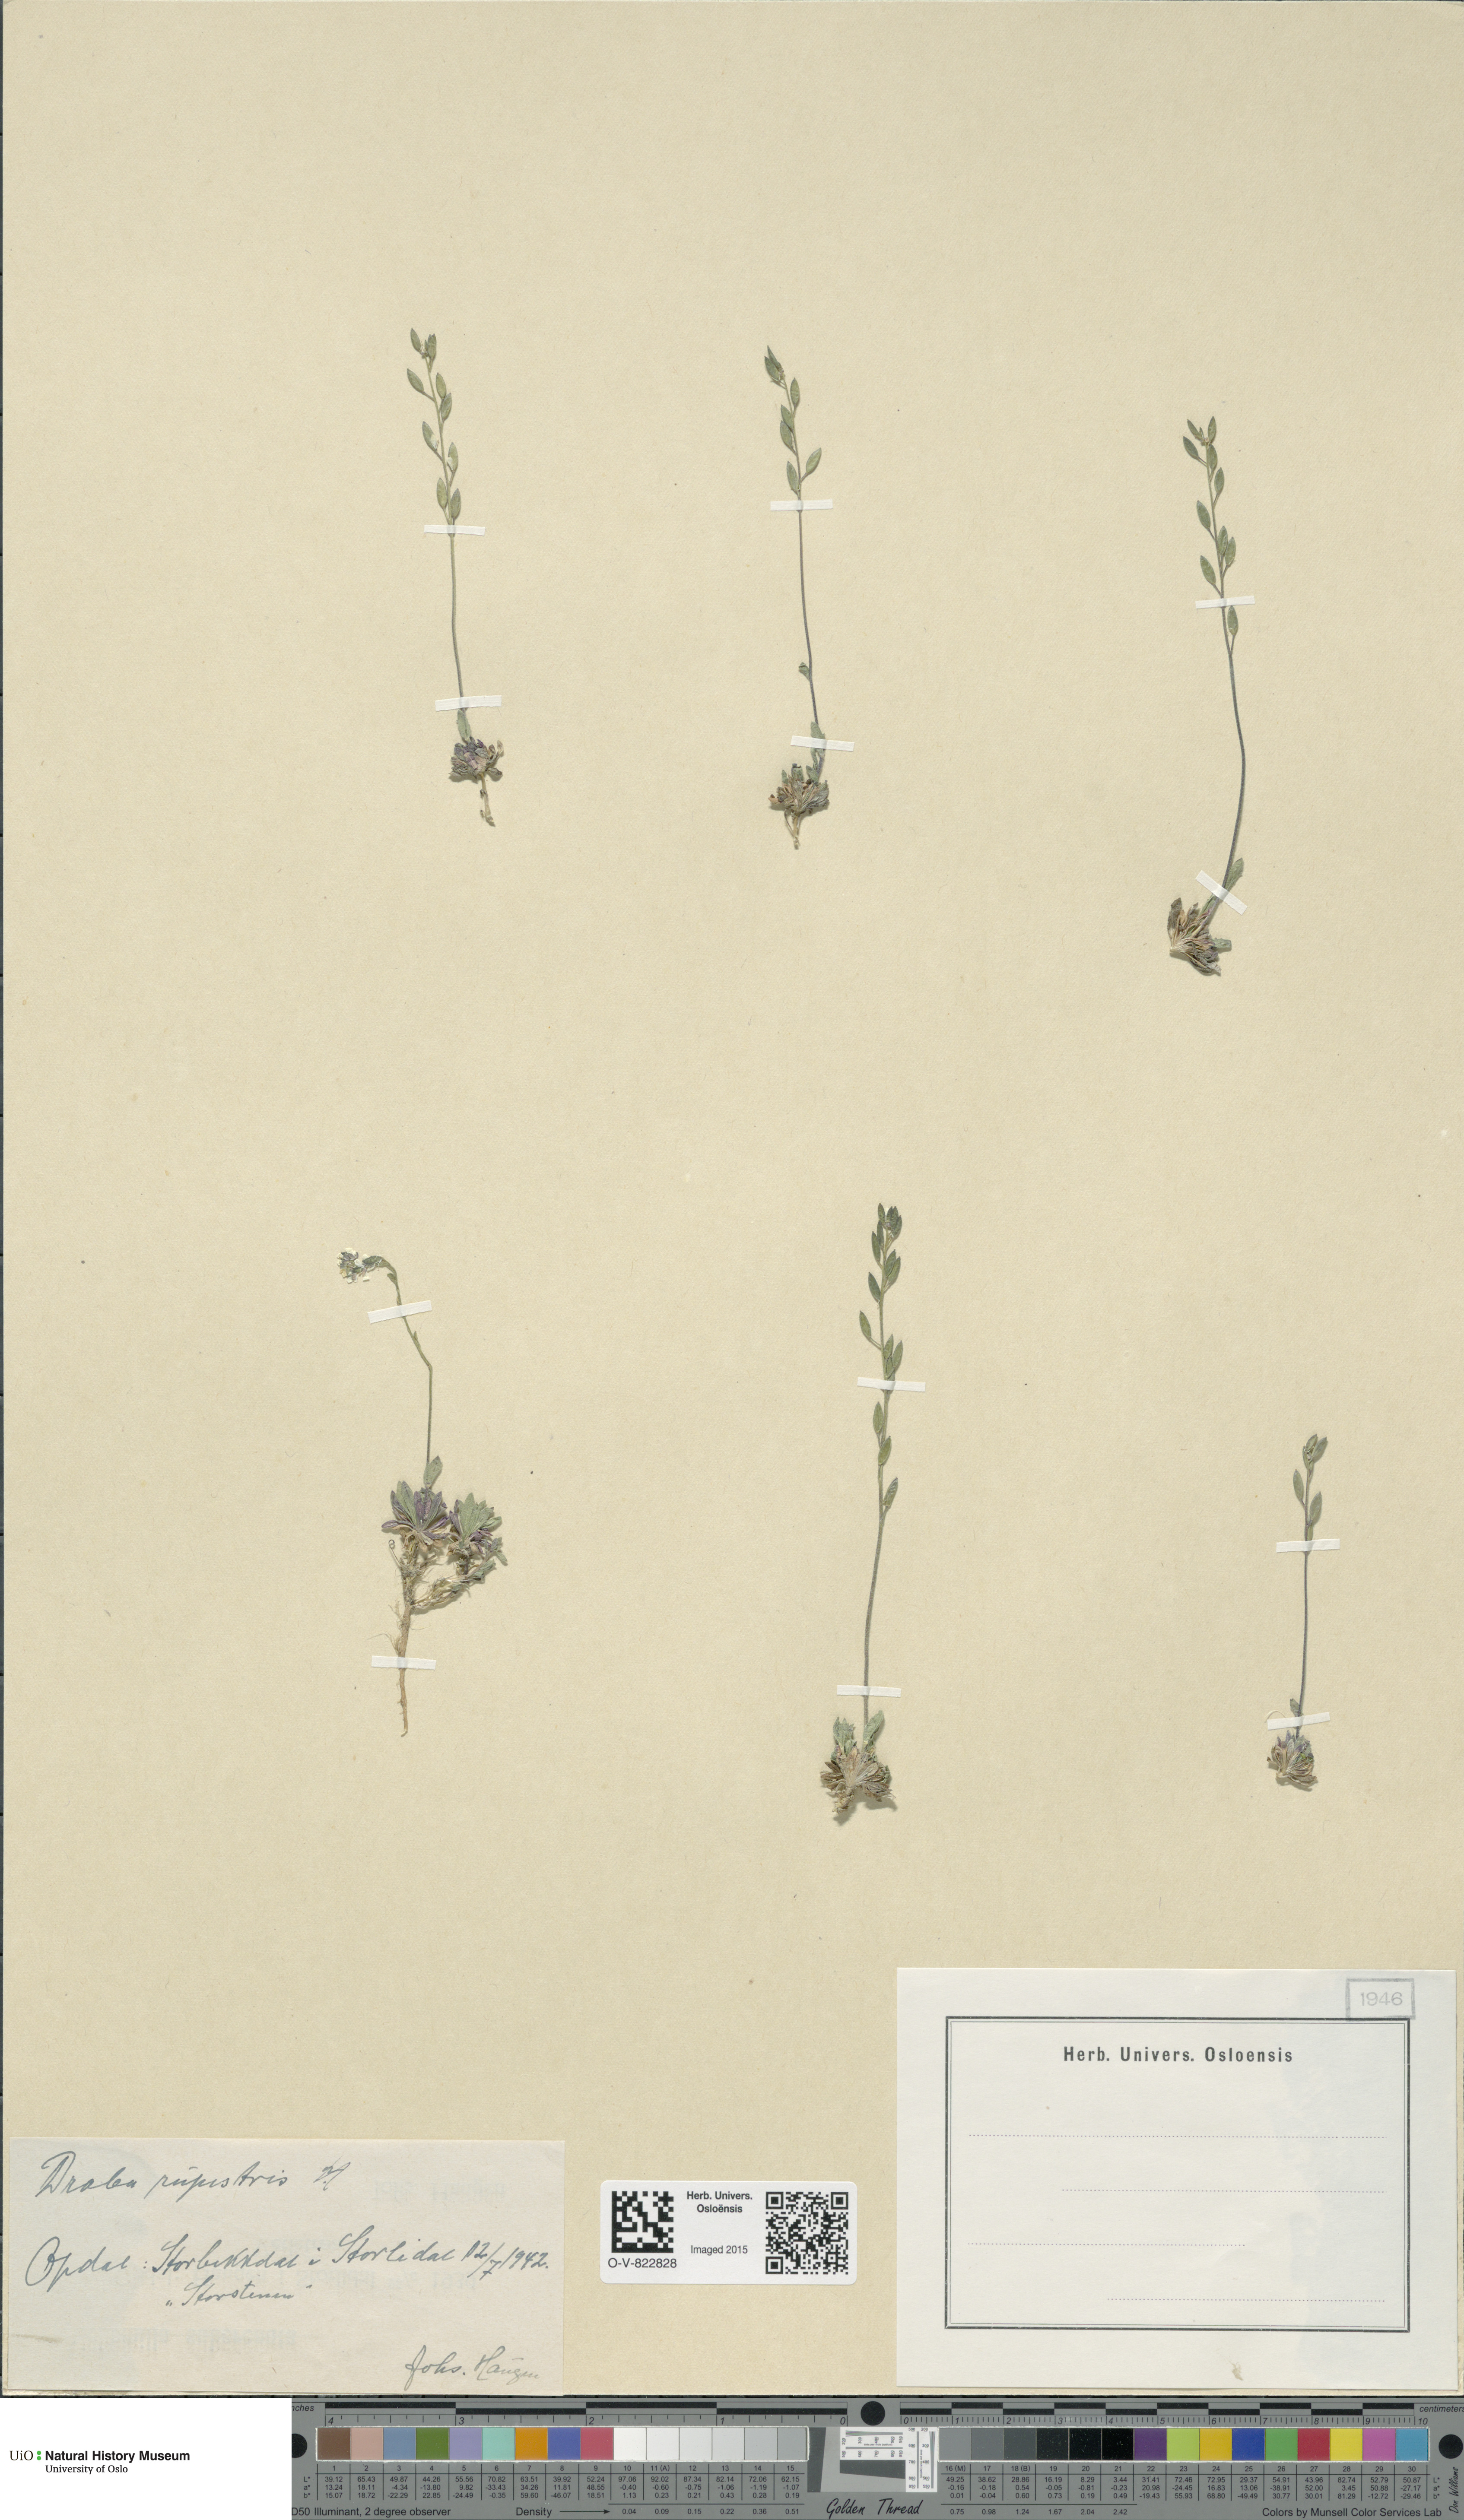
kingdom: Plantae
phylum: Tracheophyta
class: Magnoliopsida
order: Brassicales
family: Brassicaceae
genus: Draba
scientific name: Draba norvegica
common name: Rock whitlowgrass
